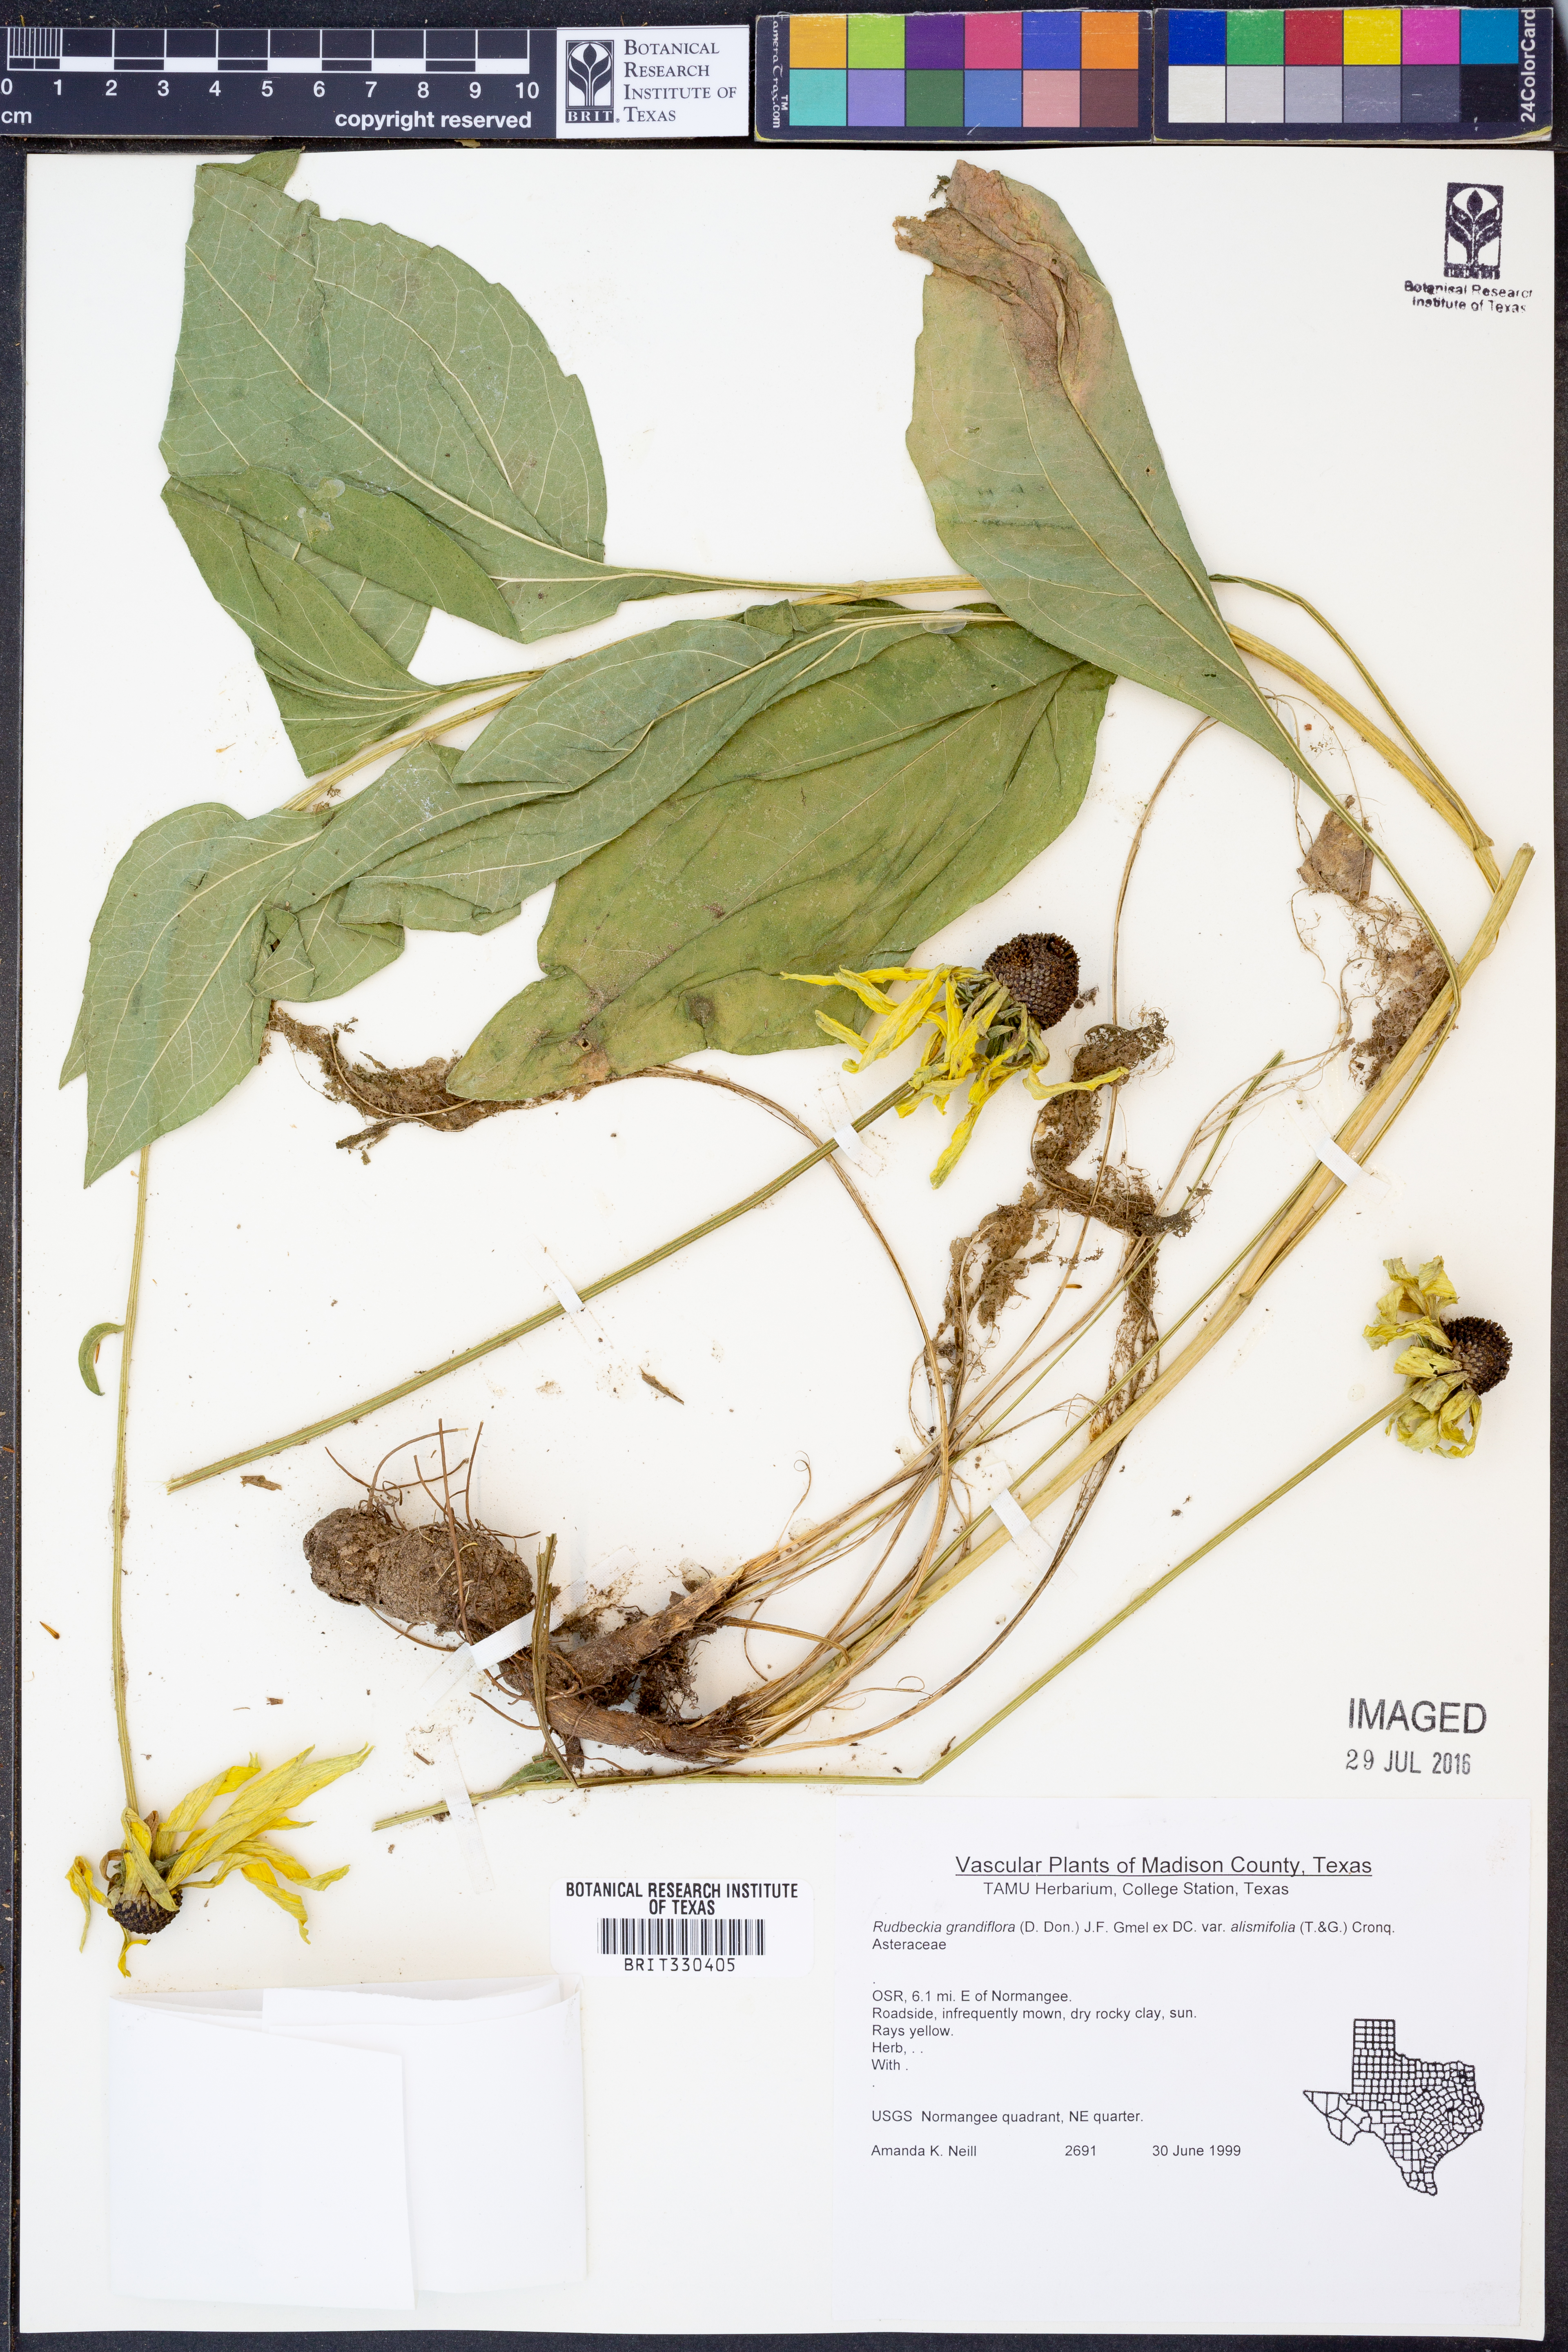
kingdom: Plantae
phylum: Tracheophyta
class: Magnoliopsida
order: Asterales
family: Asteraceae
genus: Rudbeckia
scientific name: Rudbeckia grandiflora
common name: Large-flowered coneflower
